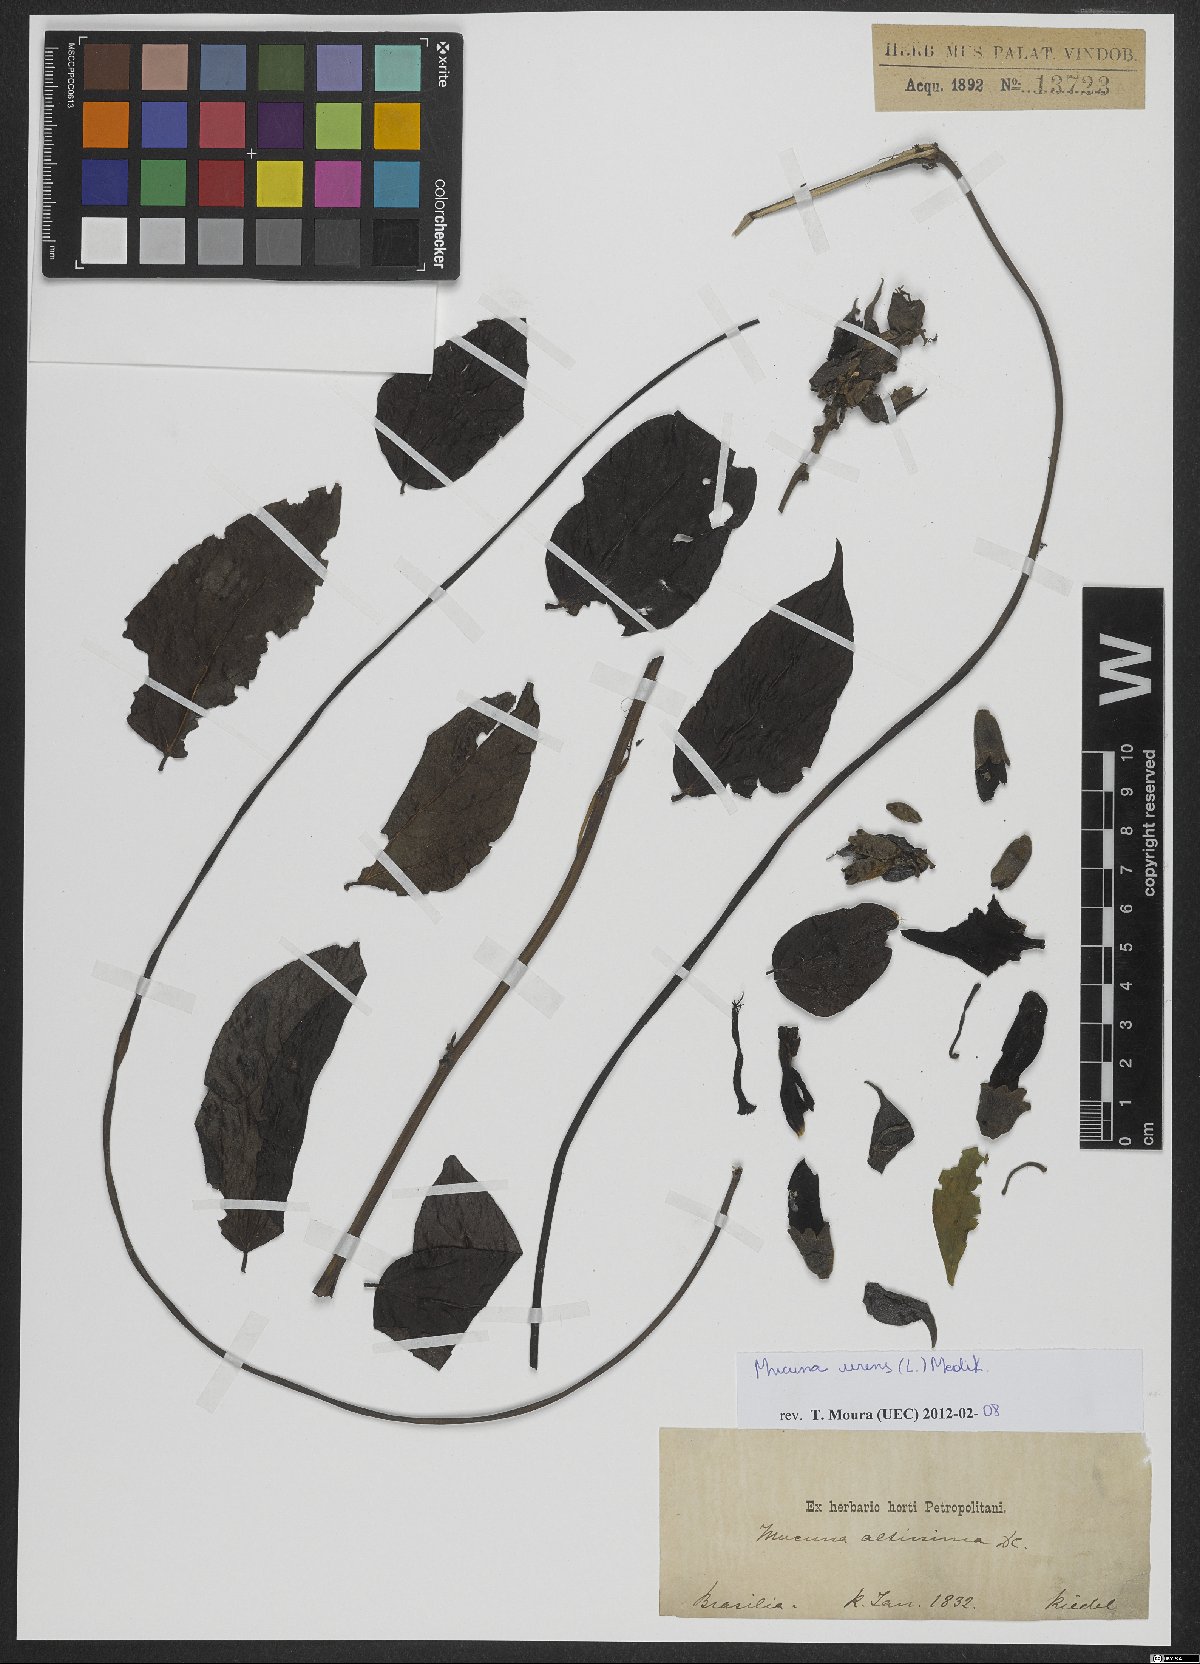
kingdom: Plantae
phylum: Tracheophyta
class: Magnoliopsida
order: Fabales
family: Fabaceae
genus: Mucuna
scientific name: Mucuna urens
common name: Red hamburger bean
